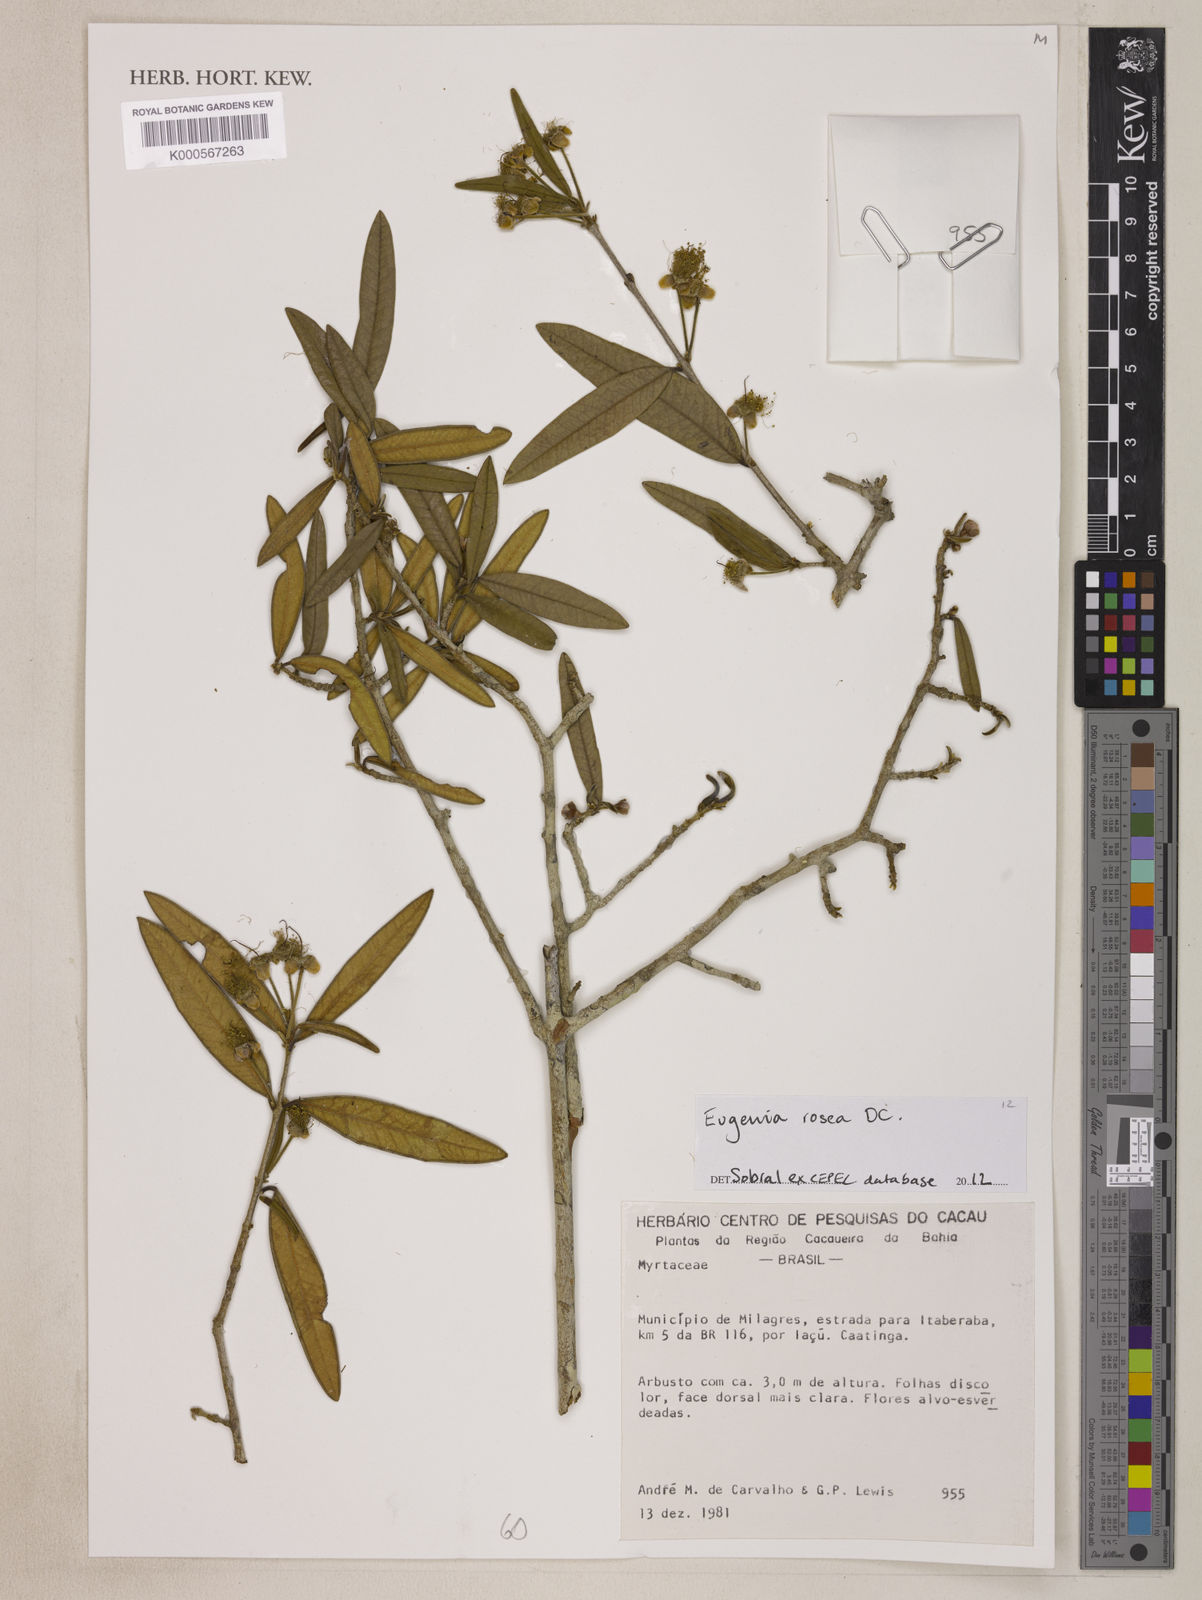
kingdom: Plantae
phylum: Tracheophyta
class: Magnoliopsida
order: Myrtales
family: Myrtaceae
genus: Eugenia
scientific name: Eugenia rosea
